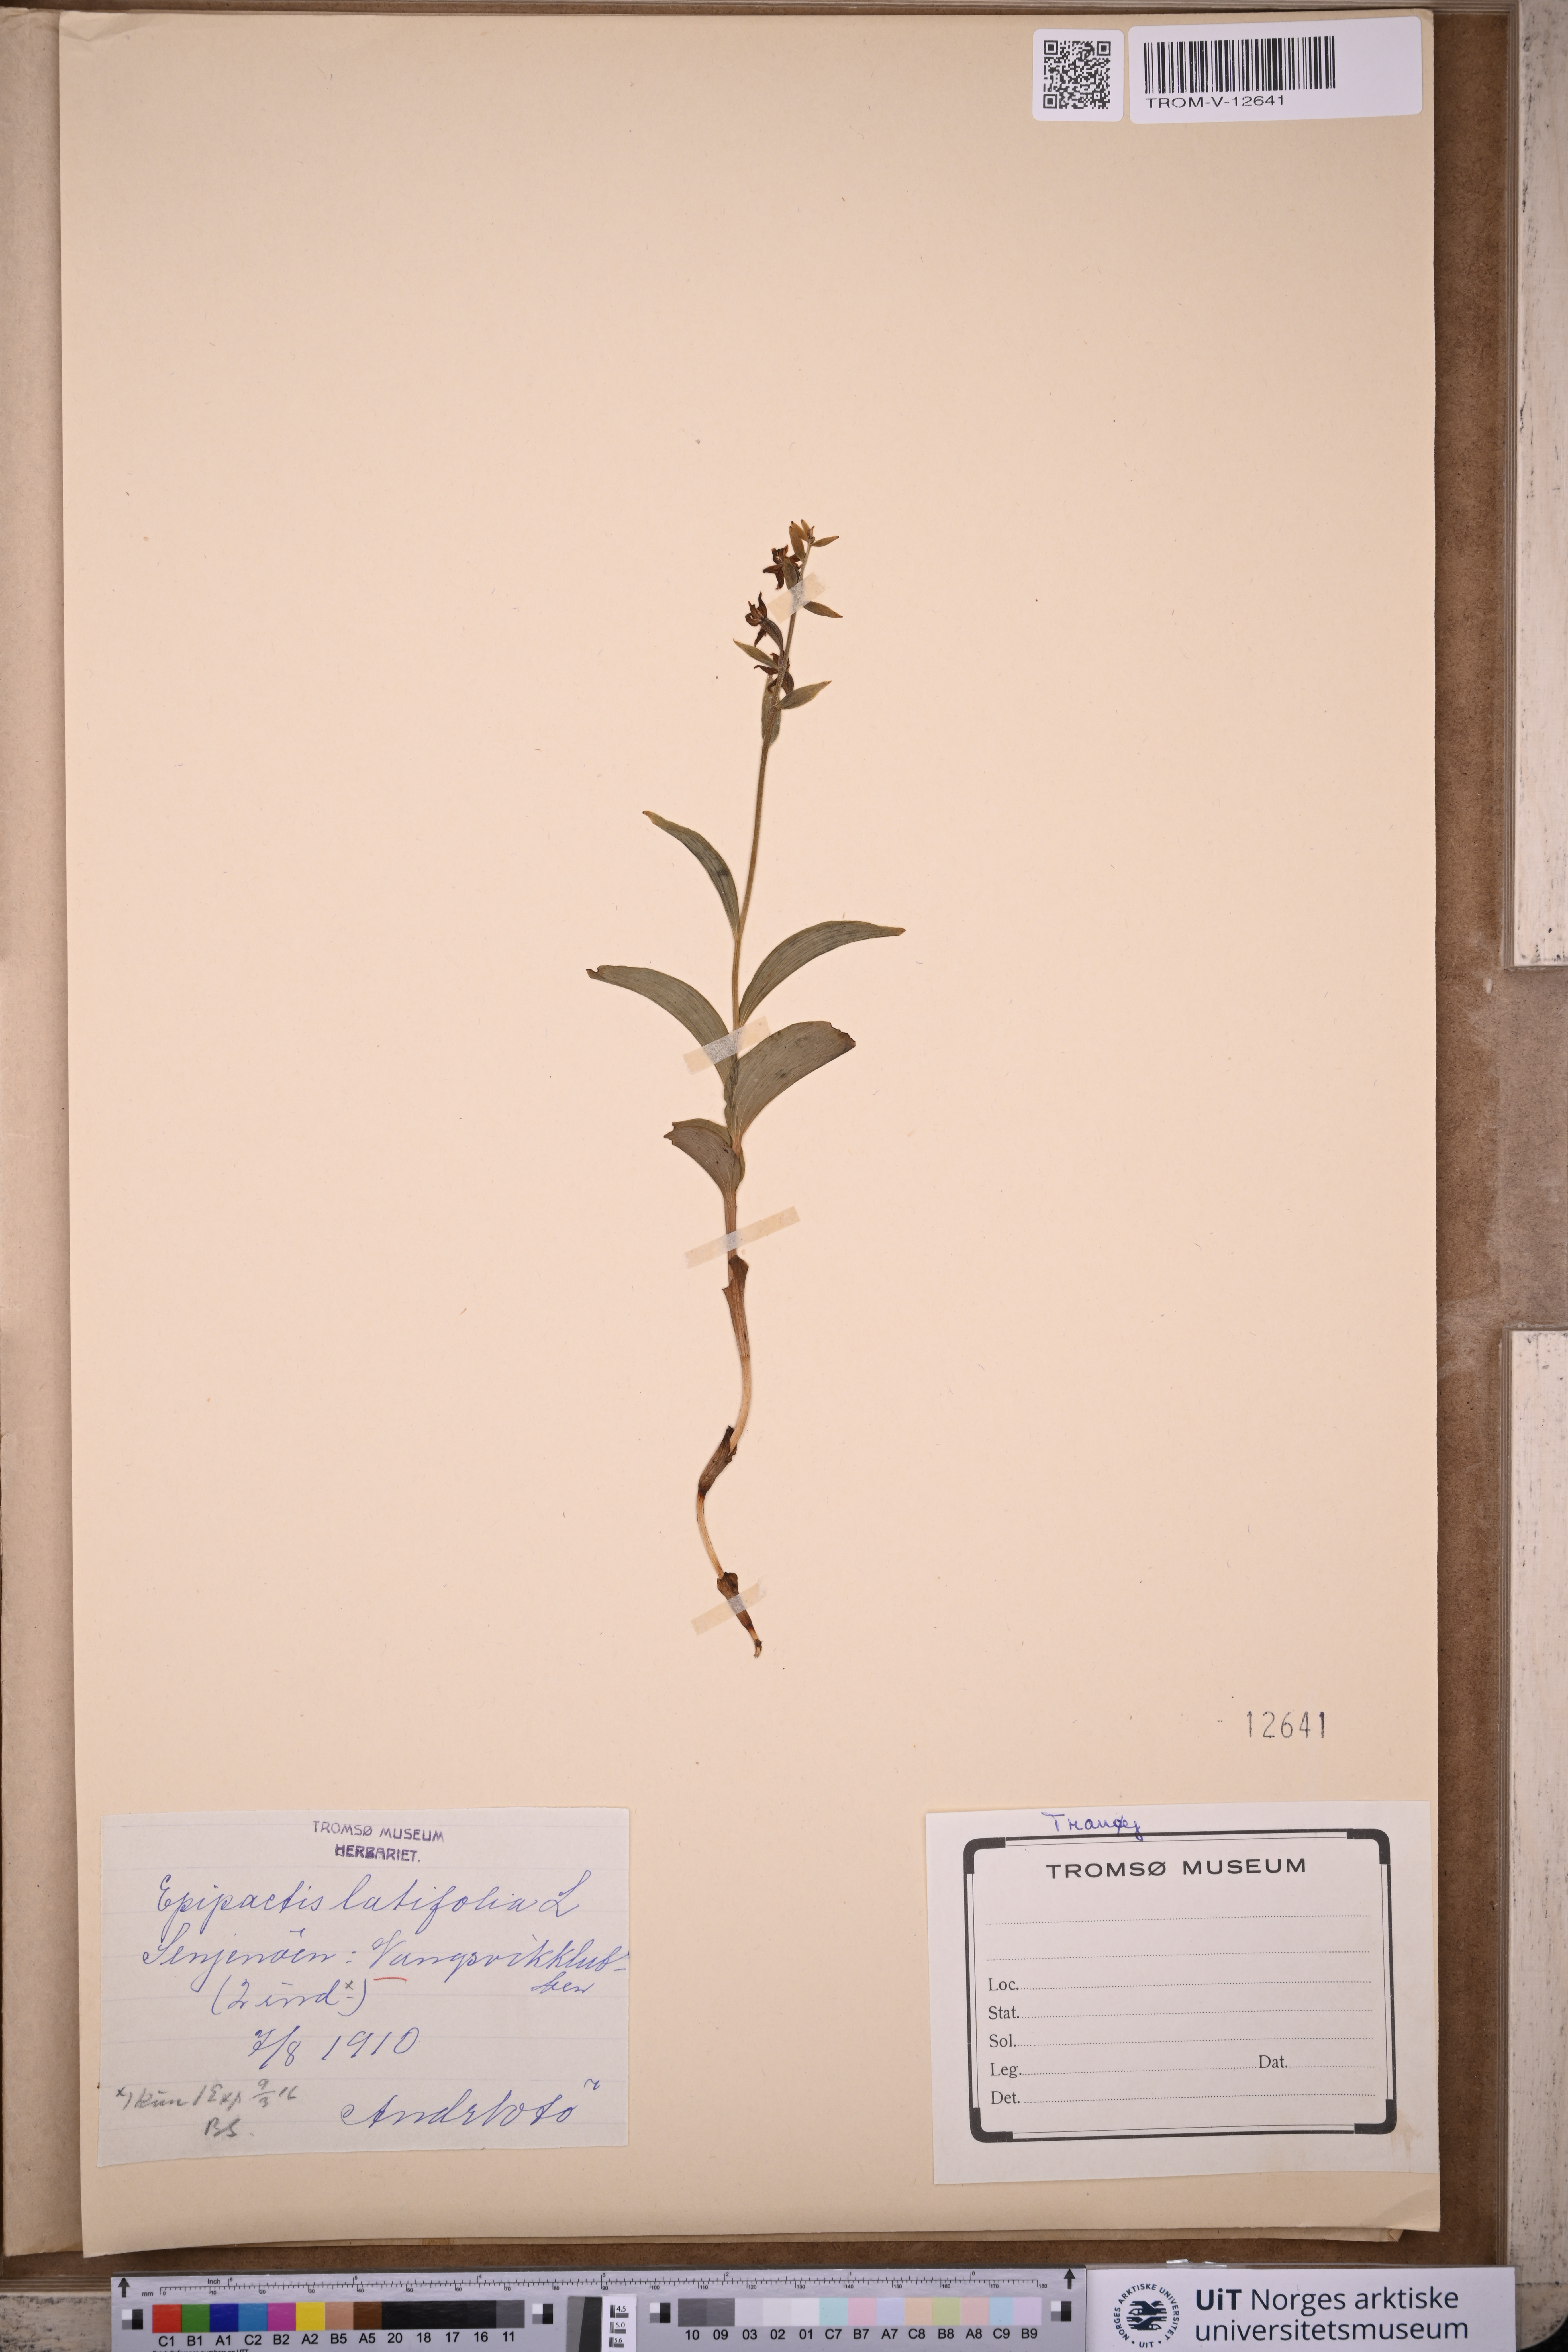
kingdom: Plantae
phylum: Tracheophyta
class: Liliopsida
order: Asparagales
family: Orchidaceae
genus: Epipactis
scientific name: Epipactis helleborine
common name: Broad-leaved helleborine
